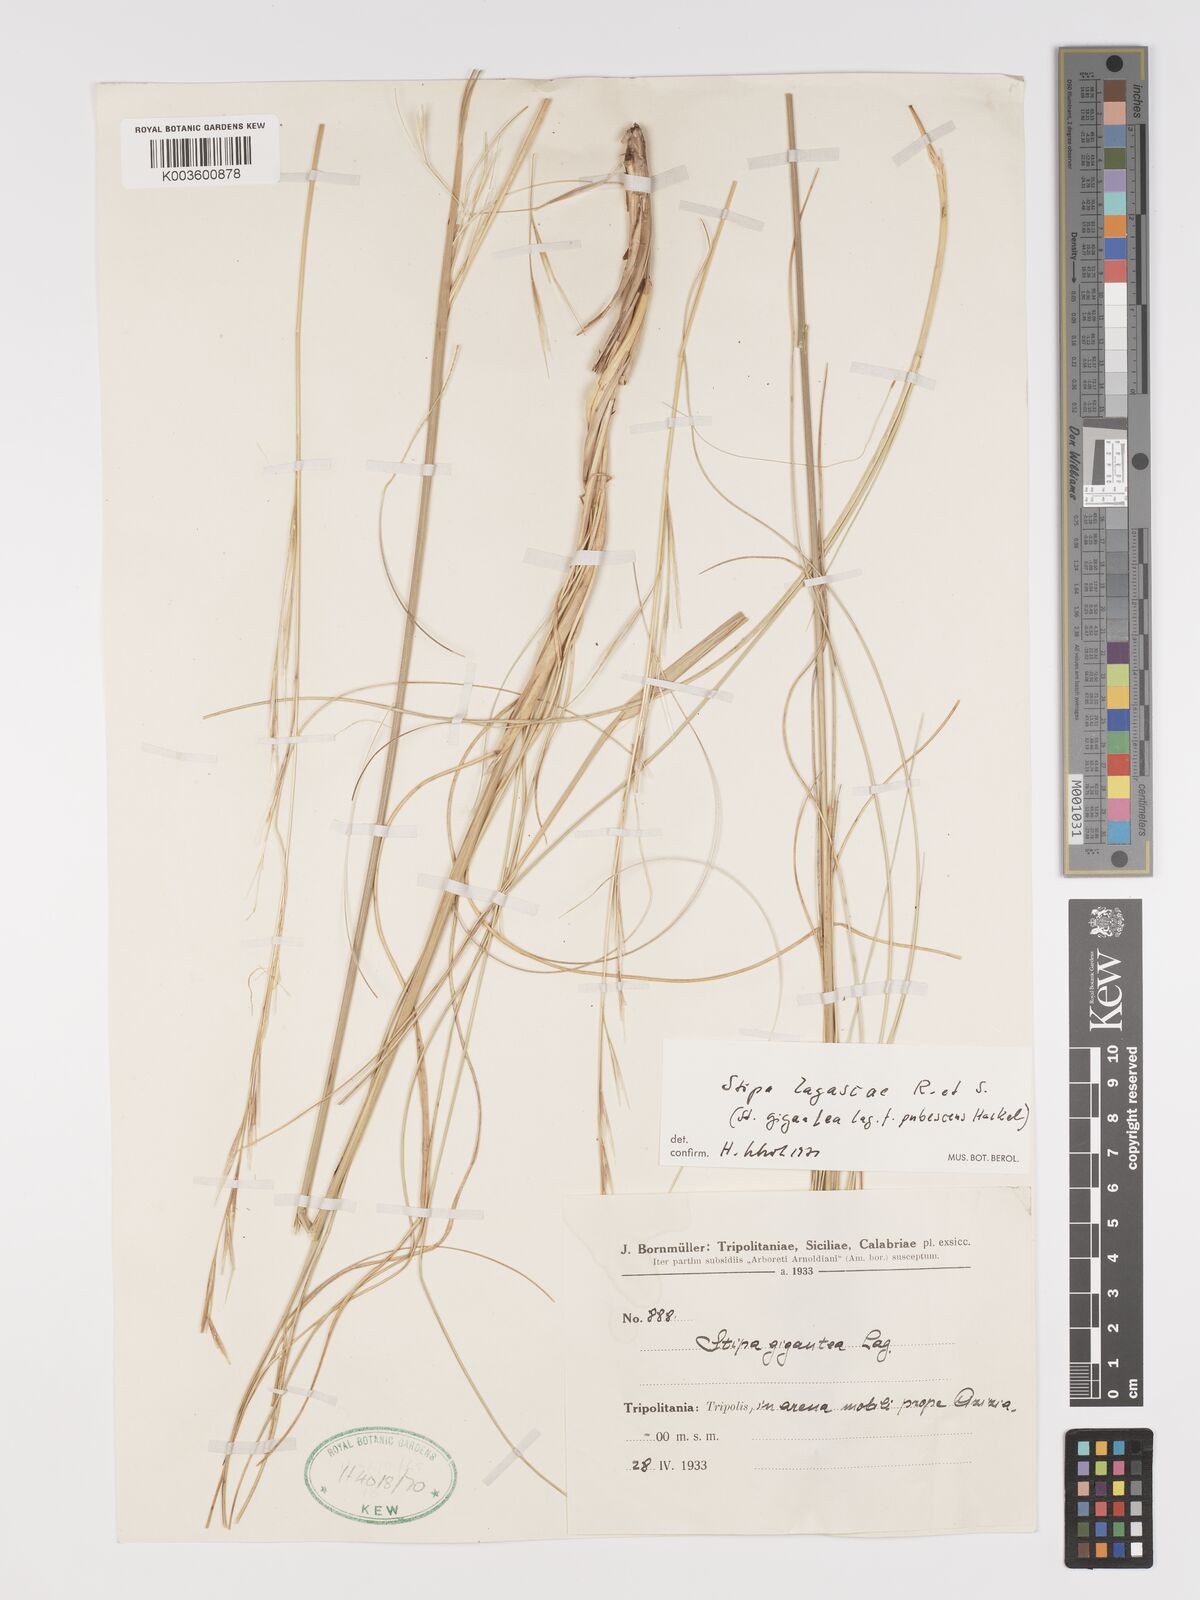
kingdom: Plantae
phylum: Tracheophyta
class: Liliopsida
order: Poales
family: Poaceae
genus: Stipa
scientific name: Stipa lagascae
